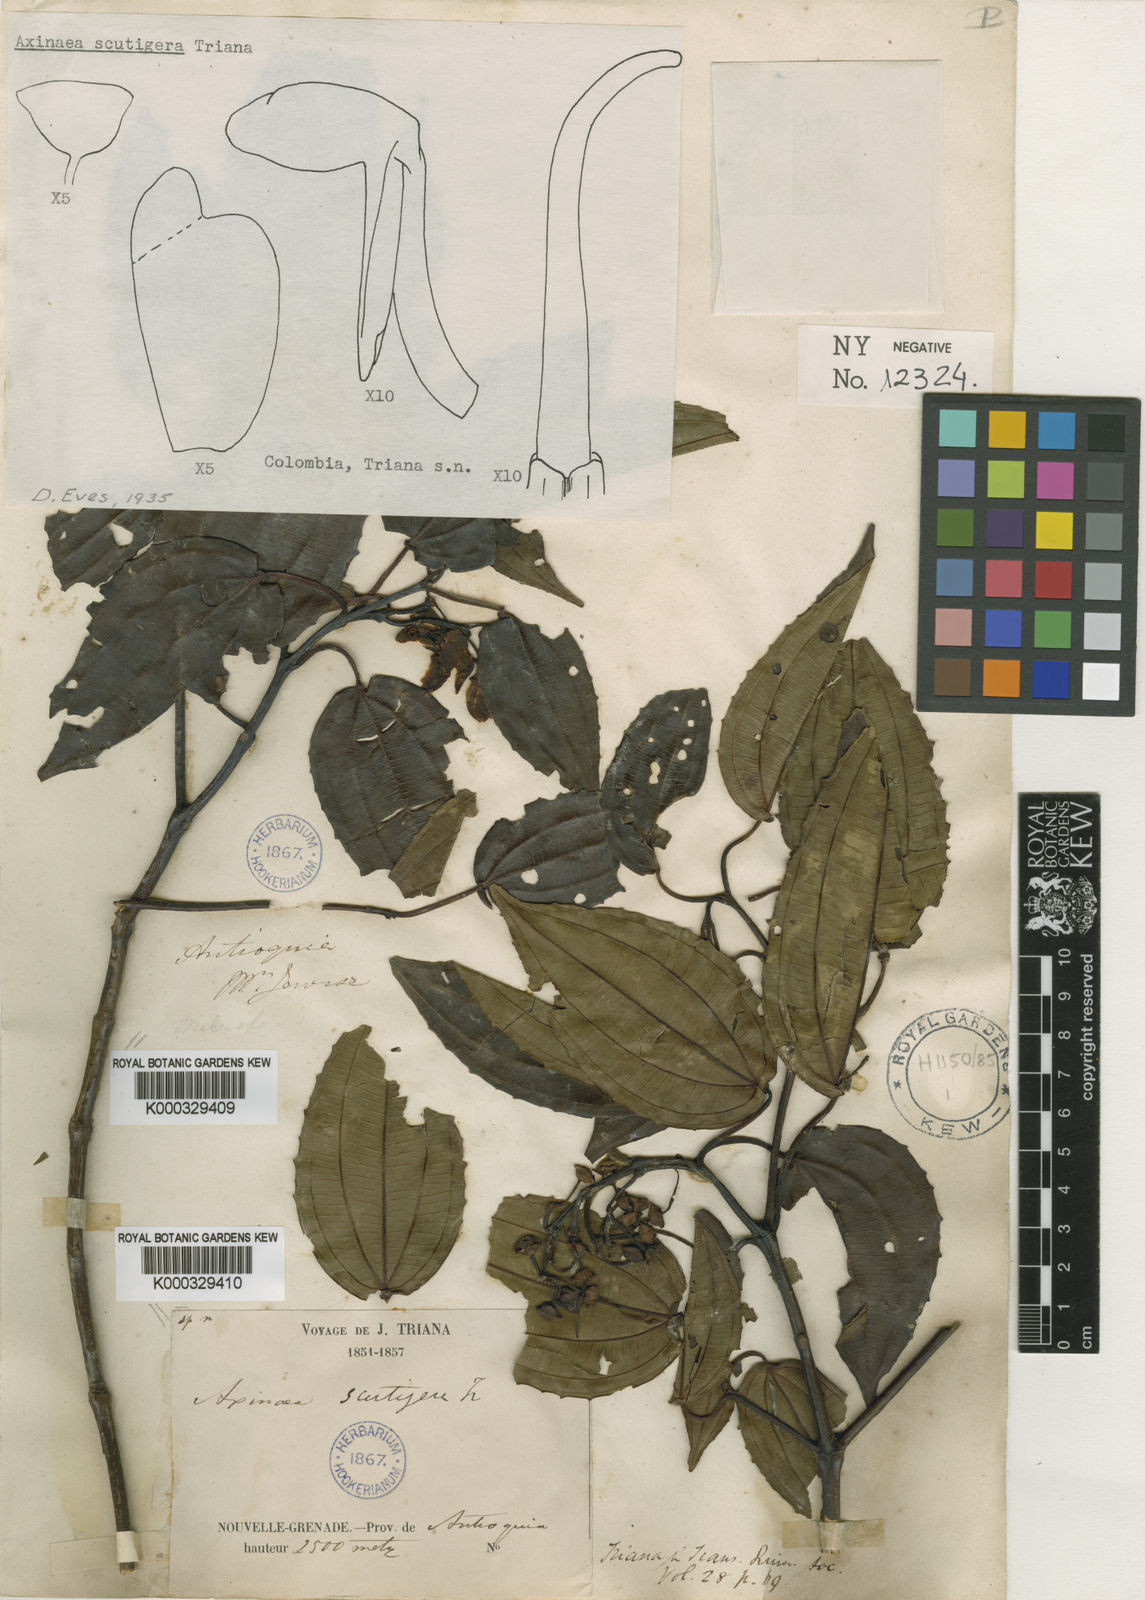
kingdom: Plantae
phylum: Tracheophyta
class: Magnoliopsida
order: Myrtales
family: Melastomataceae
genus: Axinaea
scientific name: Axinaea scutigera
